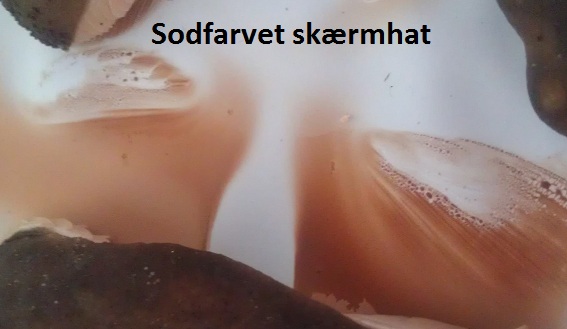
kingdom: Fungi
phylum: Basidiomycota
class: Agaricomycetes
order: Agaricales
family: Pluteaceae
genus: Pluteus
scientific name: Pluteus cervinus
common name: sodfarvet skærmhat
